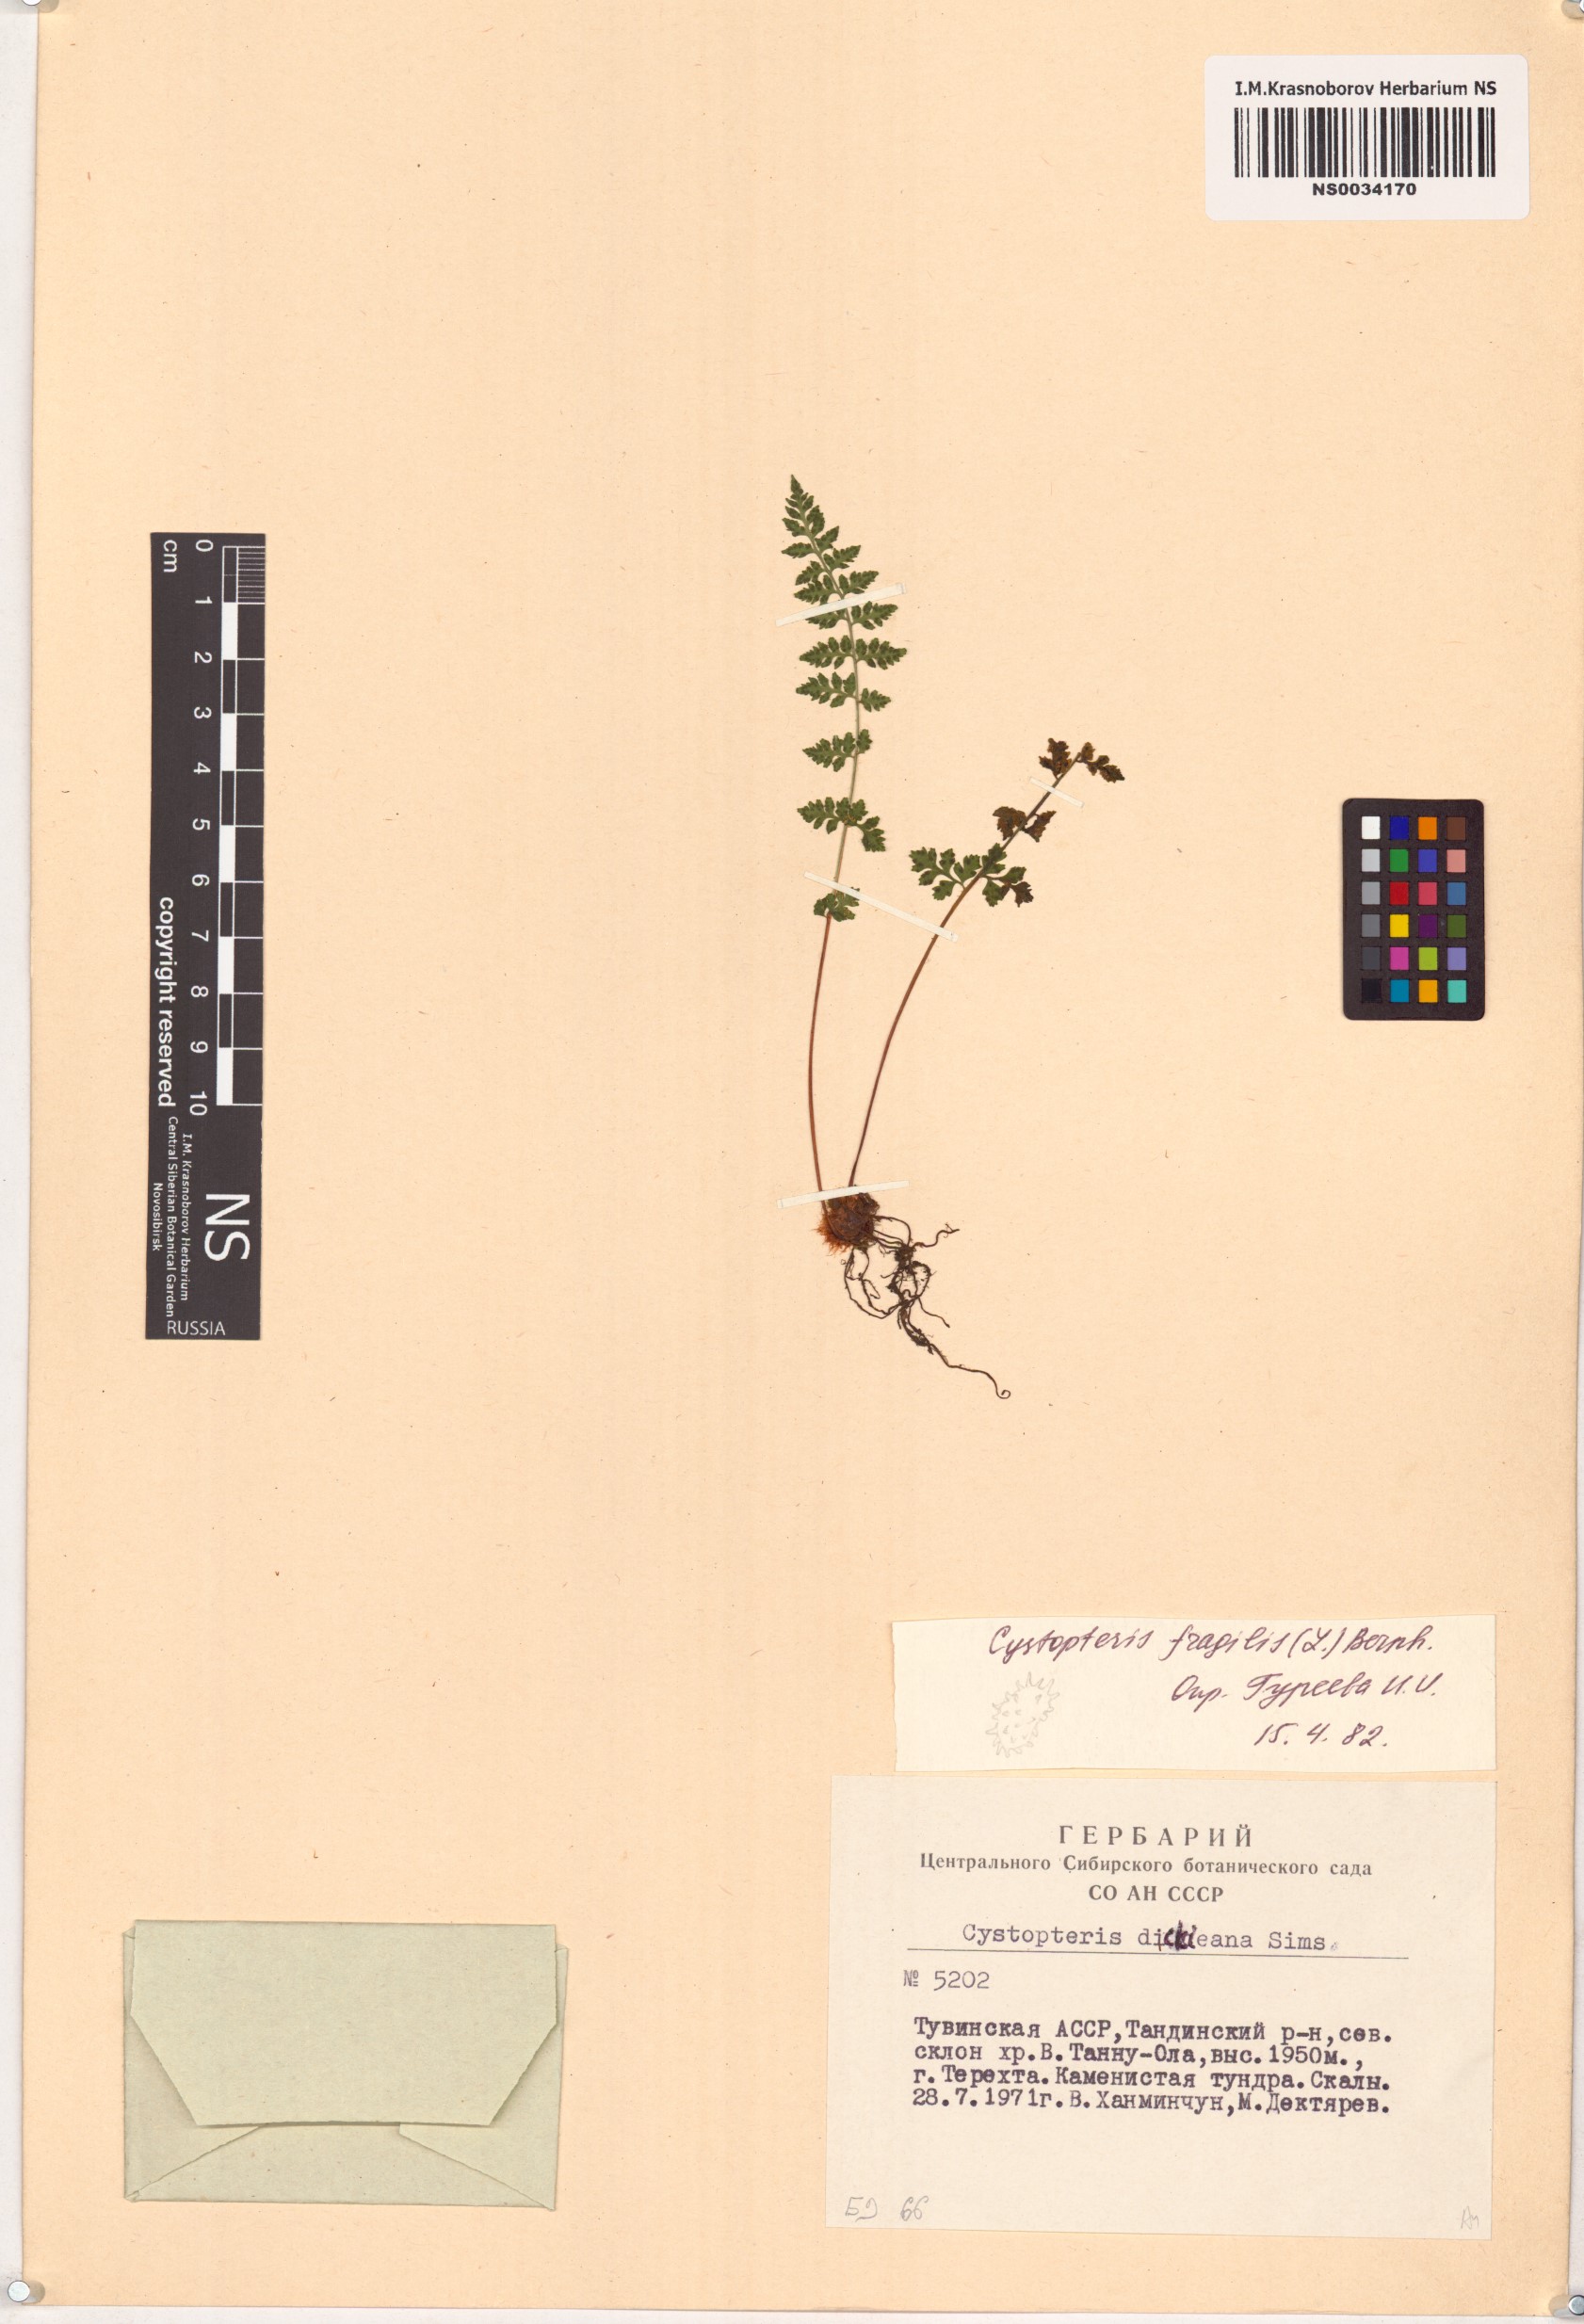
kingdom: Plantae
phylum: Tracheophyta
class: Polypodiopsida
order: Polypodiales
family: Cystopteridaceae
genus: Cystopteris
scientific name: Cystopteris fragilis
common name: Brittle bladder fern
